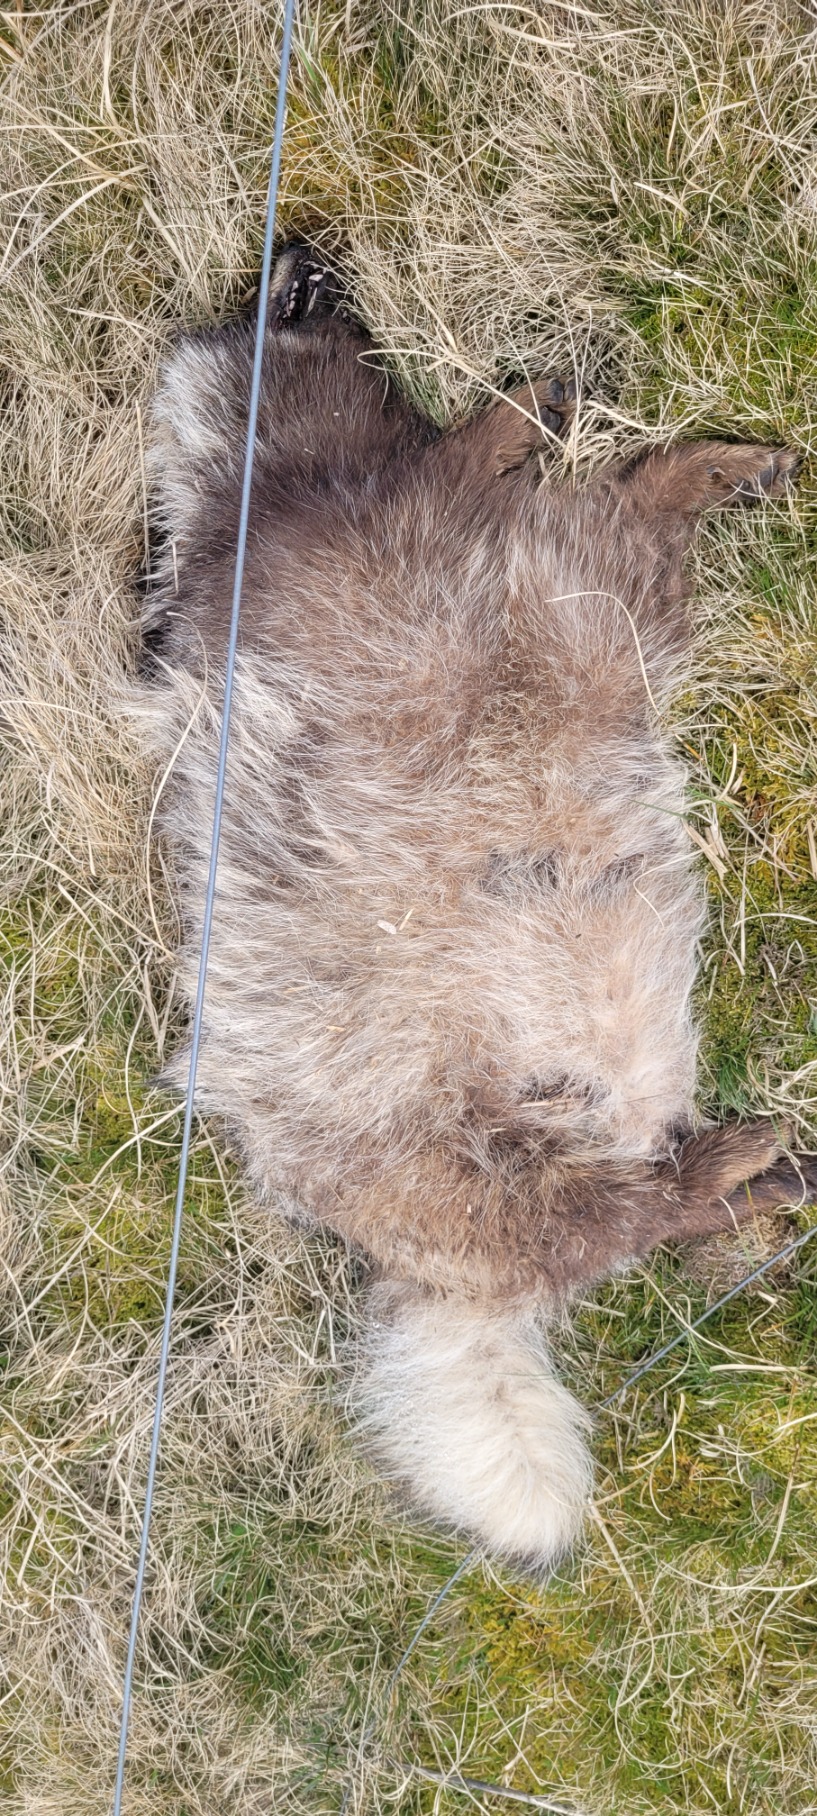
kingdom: Animalia
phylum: Chordata
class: Mammalia
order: Carnivora
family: Canidae
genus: Nyctereutes
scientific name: Nyctereutes procyonoides
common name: Mårhund
